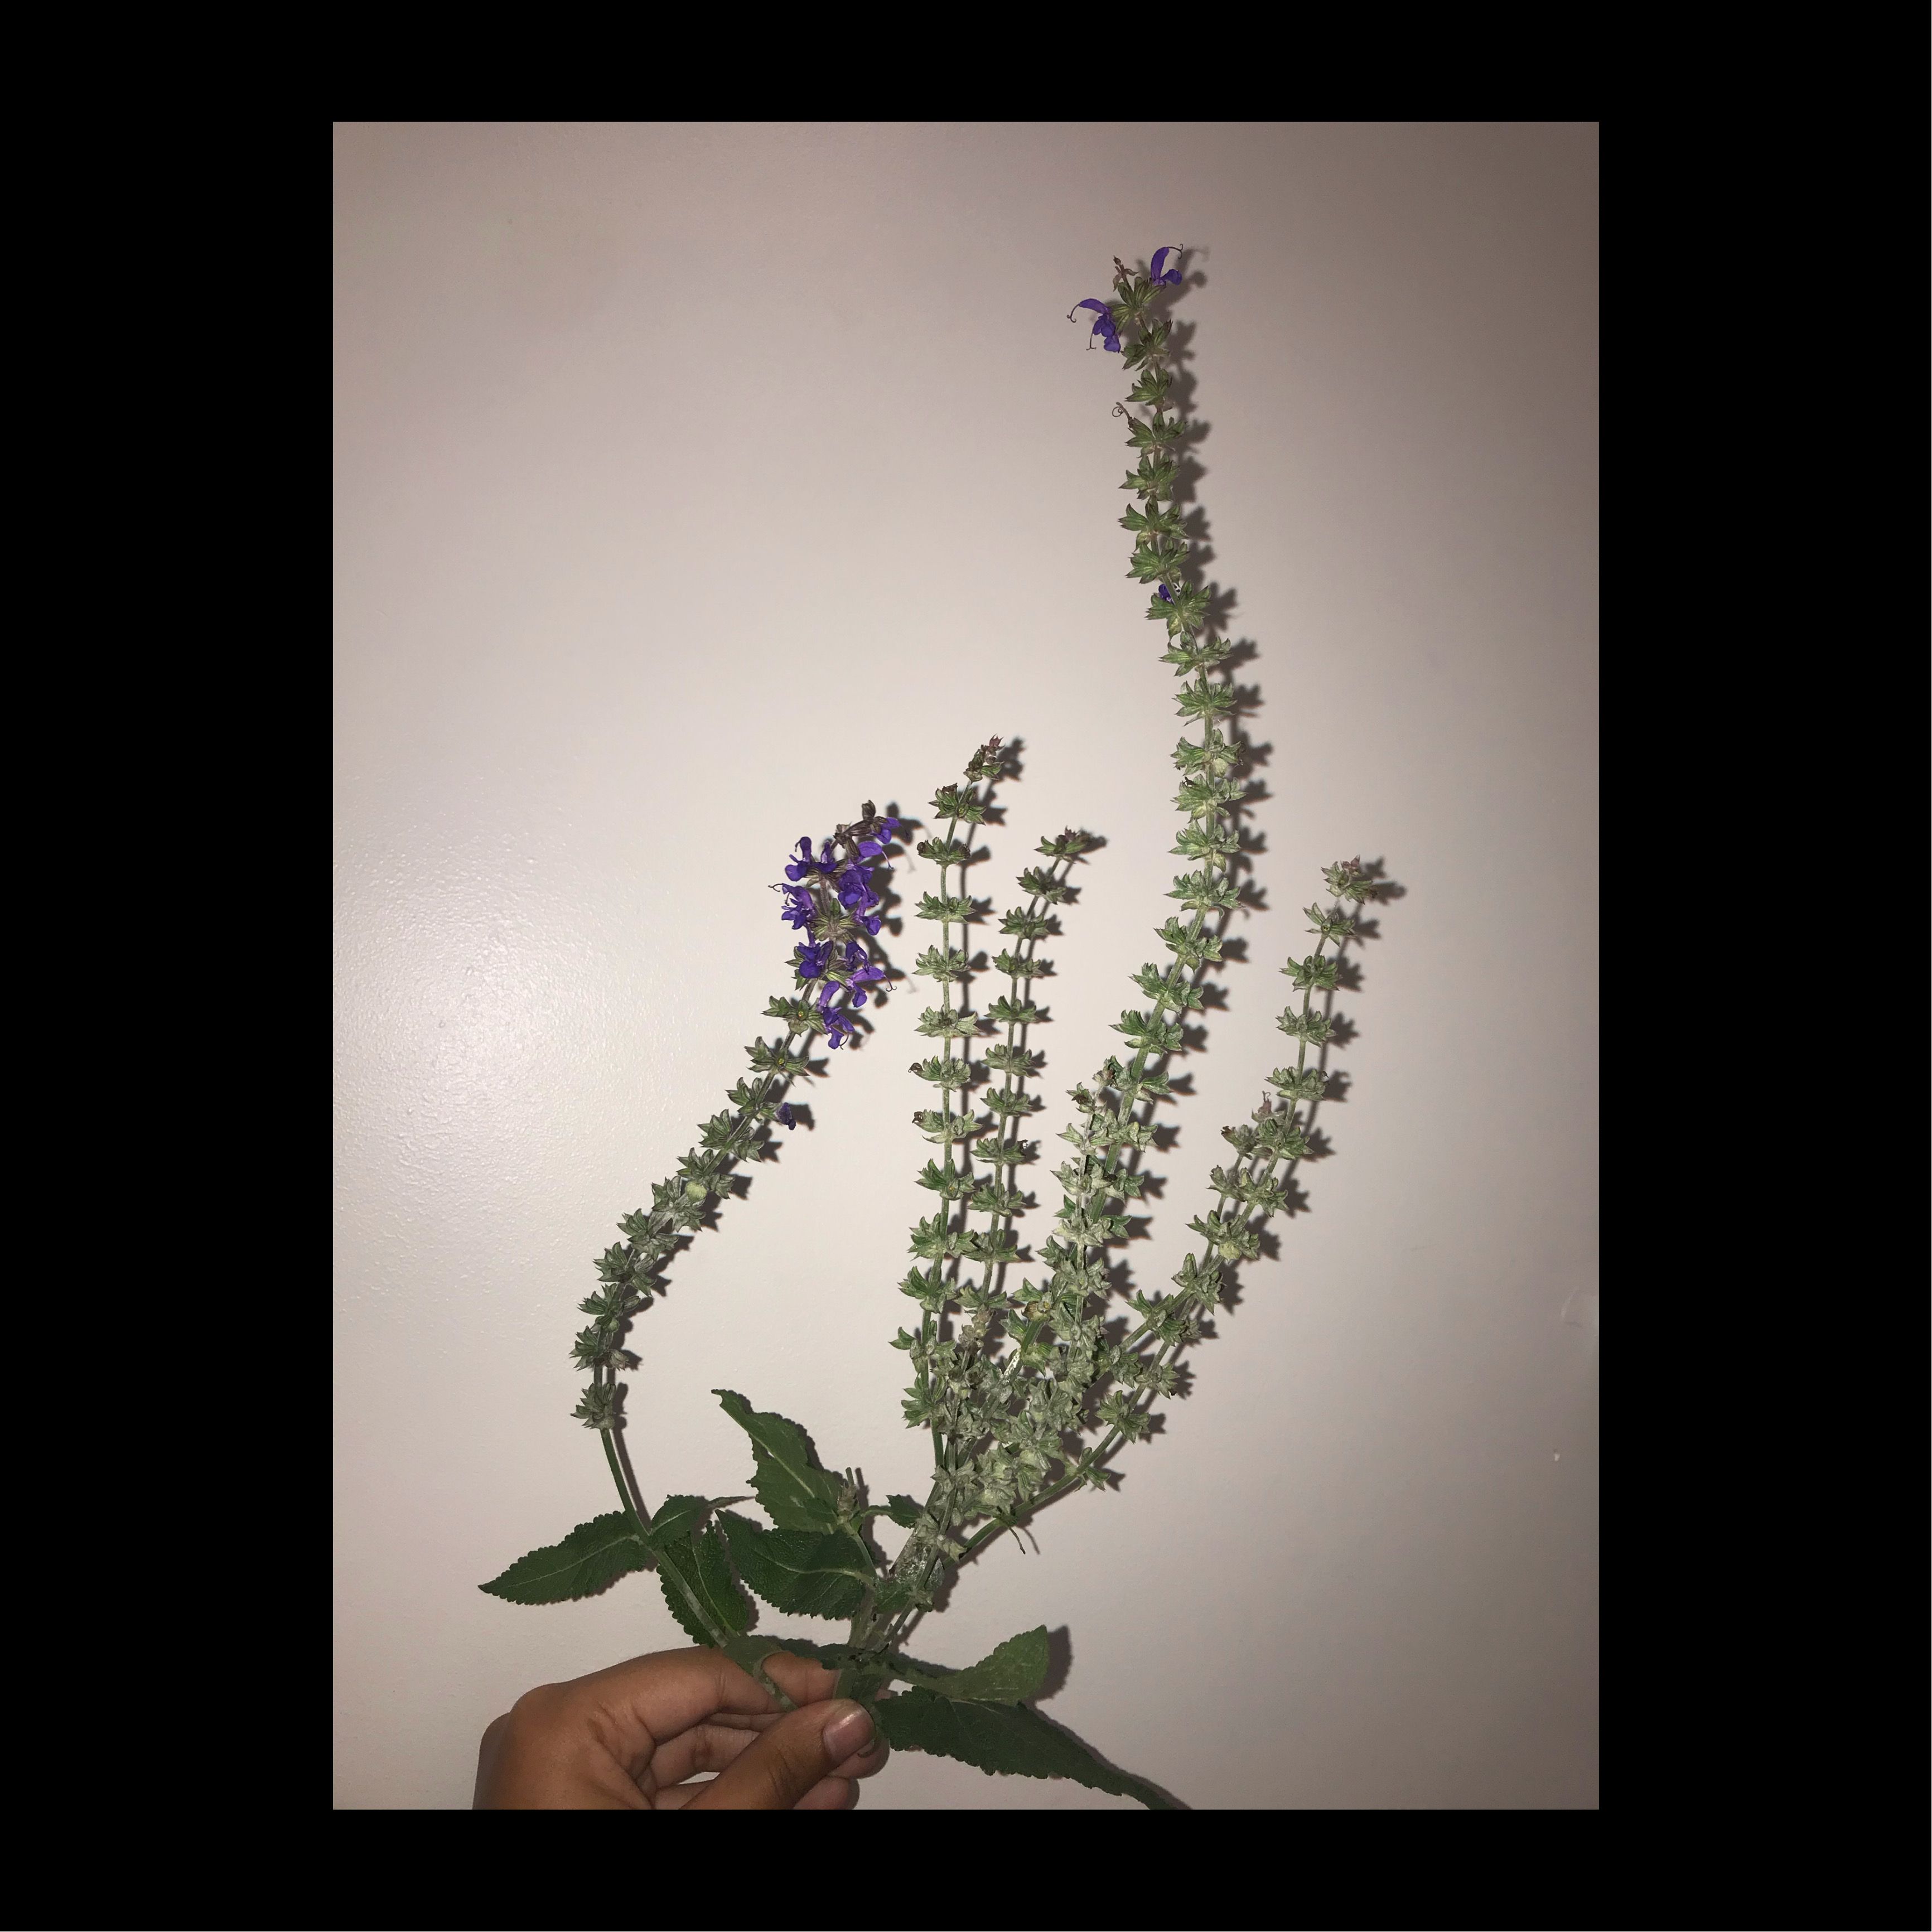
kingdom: Plantae
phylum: Tracheophyta
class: Magnoliopsida
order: Lamiales
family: Lamiaceae
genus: Salvia
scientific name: Salvia pratensis
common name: Meadow Sage
